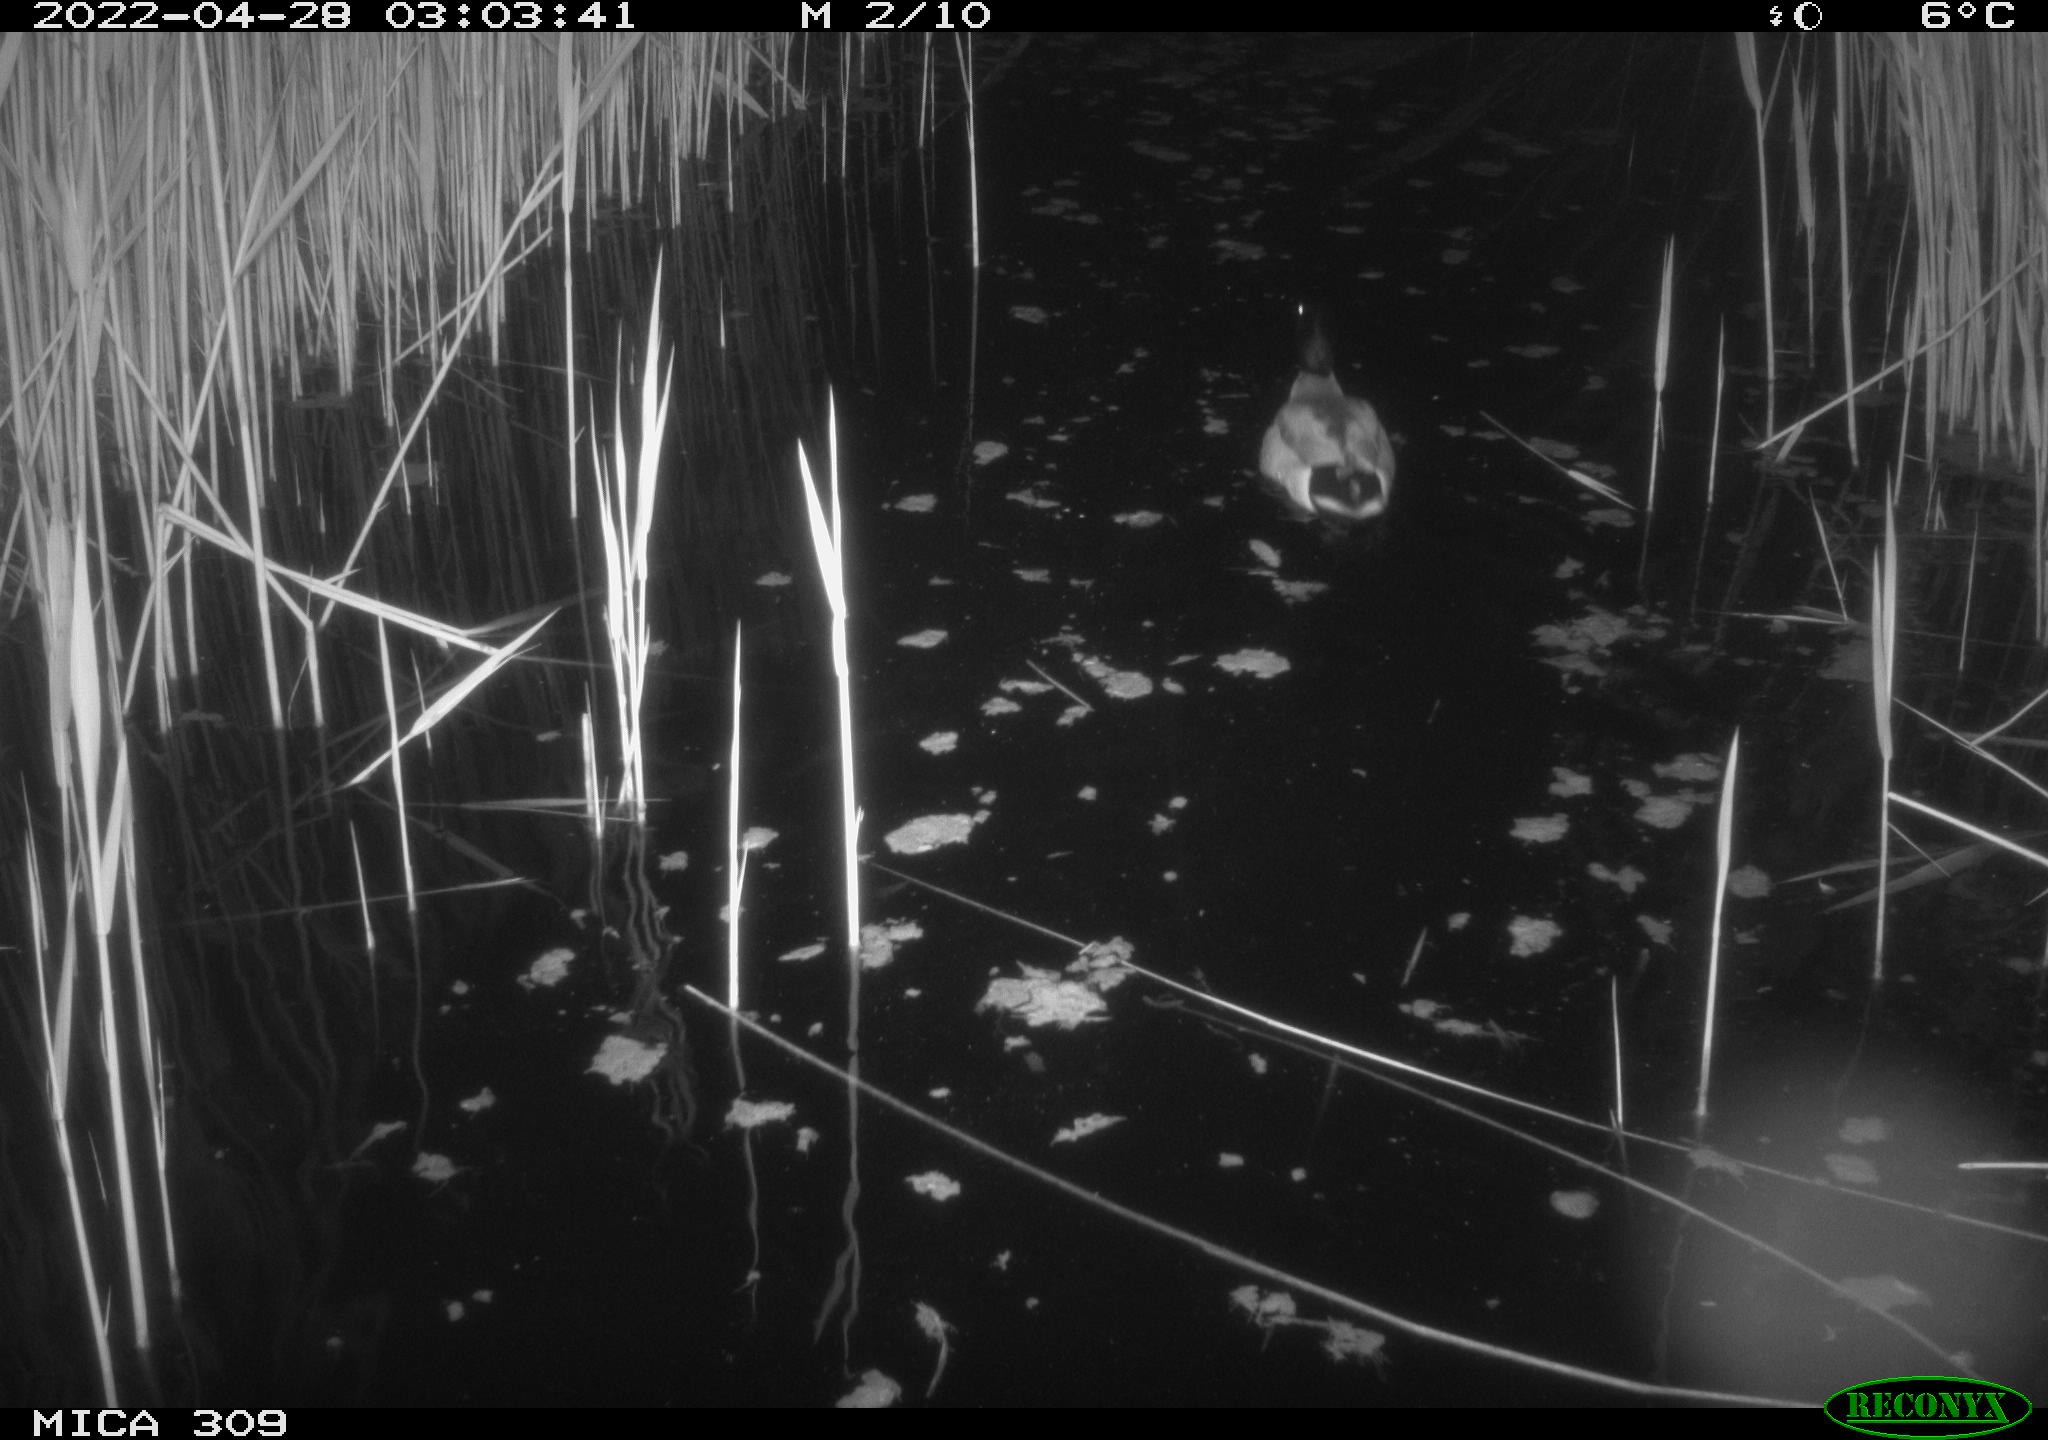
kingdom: Animalia
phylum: Chordata
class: Aves
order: Anseriformes
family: Anatidae
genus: Anas
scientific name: Anas platyrhynchos
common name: Mallard
